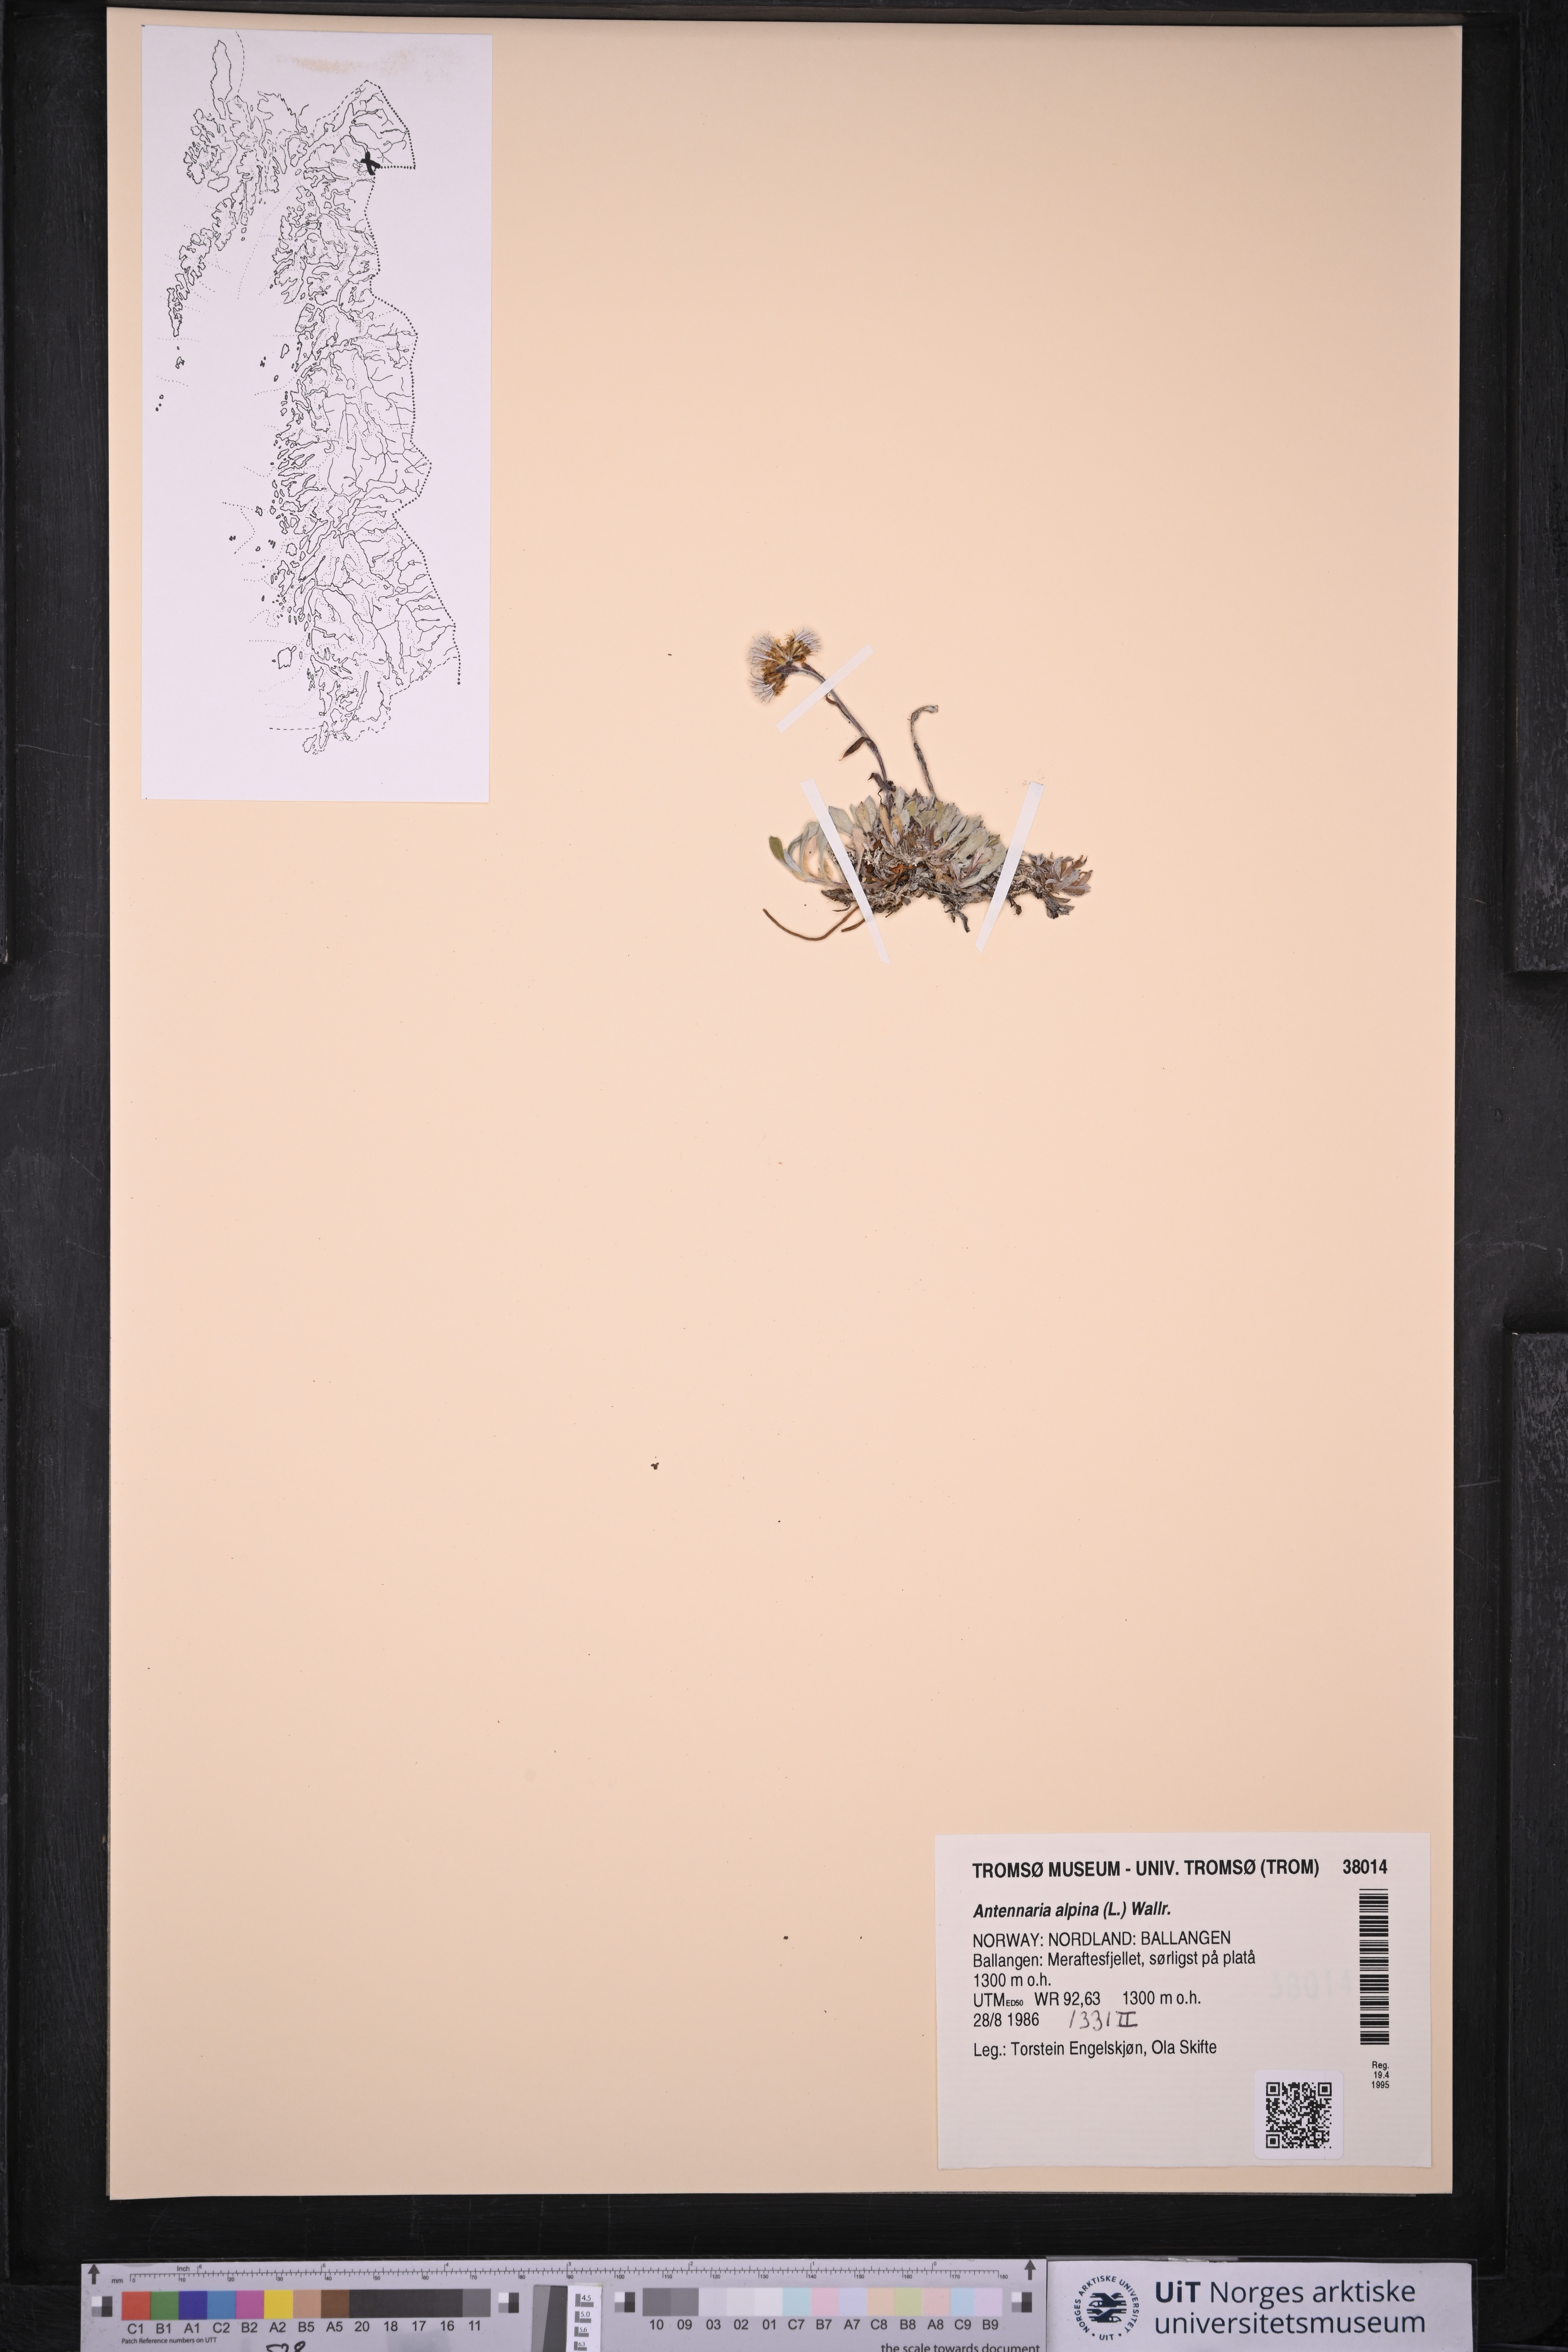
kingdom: Plantae
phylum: Tracheophyta
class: Magnoliopsida
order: Asterales
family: Asteraceae
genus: Antennaria
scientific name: Antennaria alpina
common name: Alpine pussytoes
